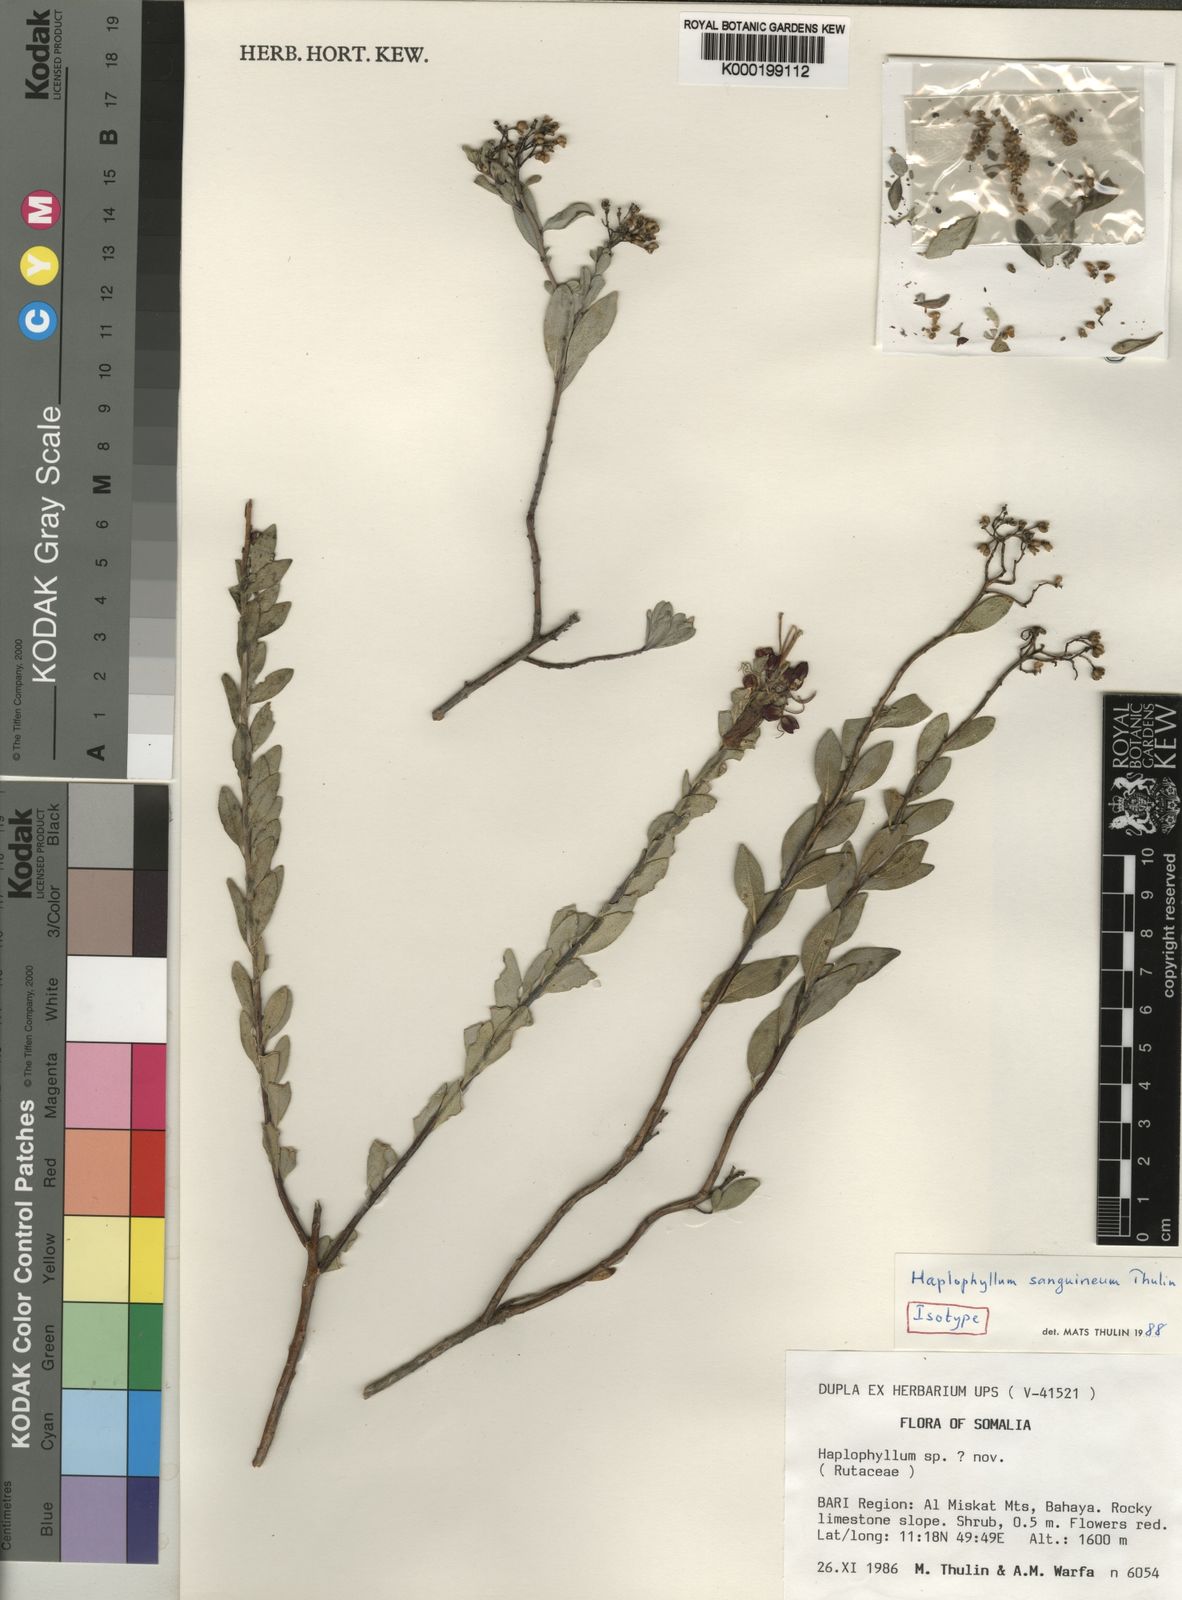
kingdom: Plantae
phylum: Tracheophyta
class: Magnoliopsida
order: Sapindales
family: Rutaceae
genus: Haplophyllum
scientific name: Haplophyllum sanguineum
